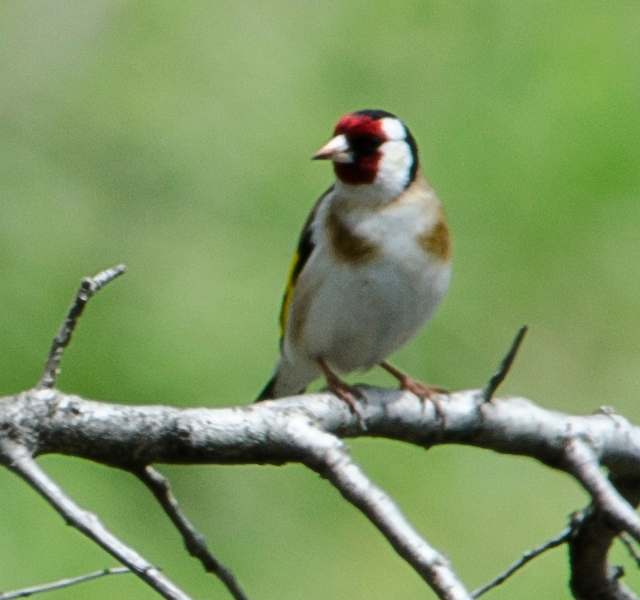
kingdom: Animalia
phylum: Chordata
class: Aves
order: Passeriformes
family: Fringillidae
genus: Carduelis
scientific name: Carduelis carduelis
